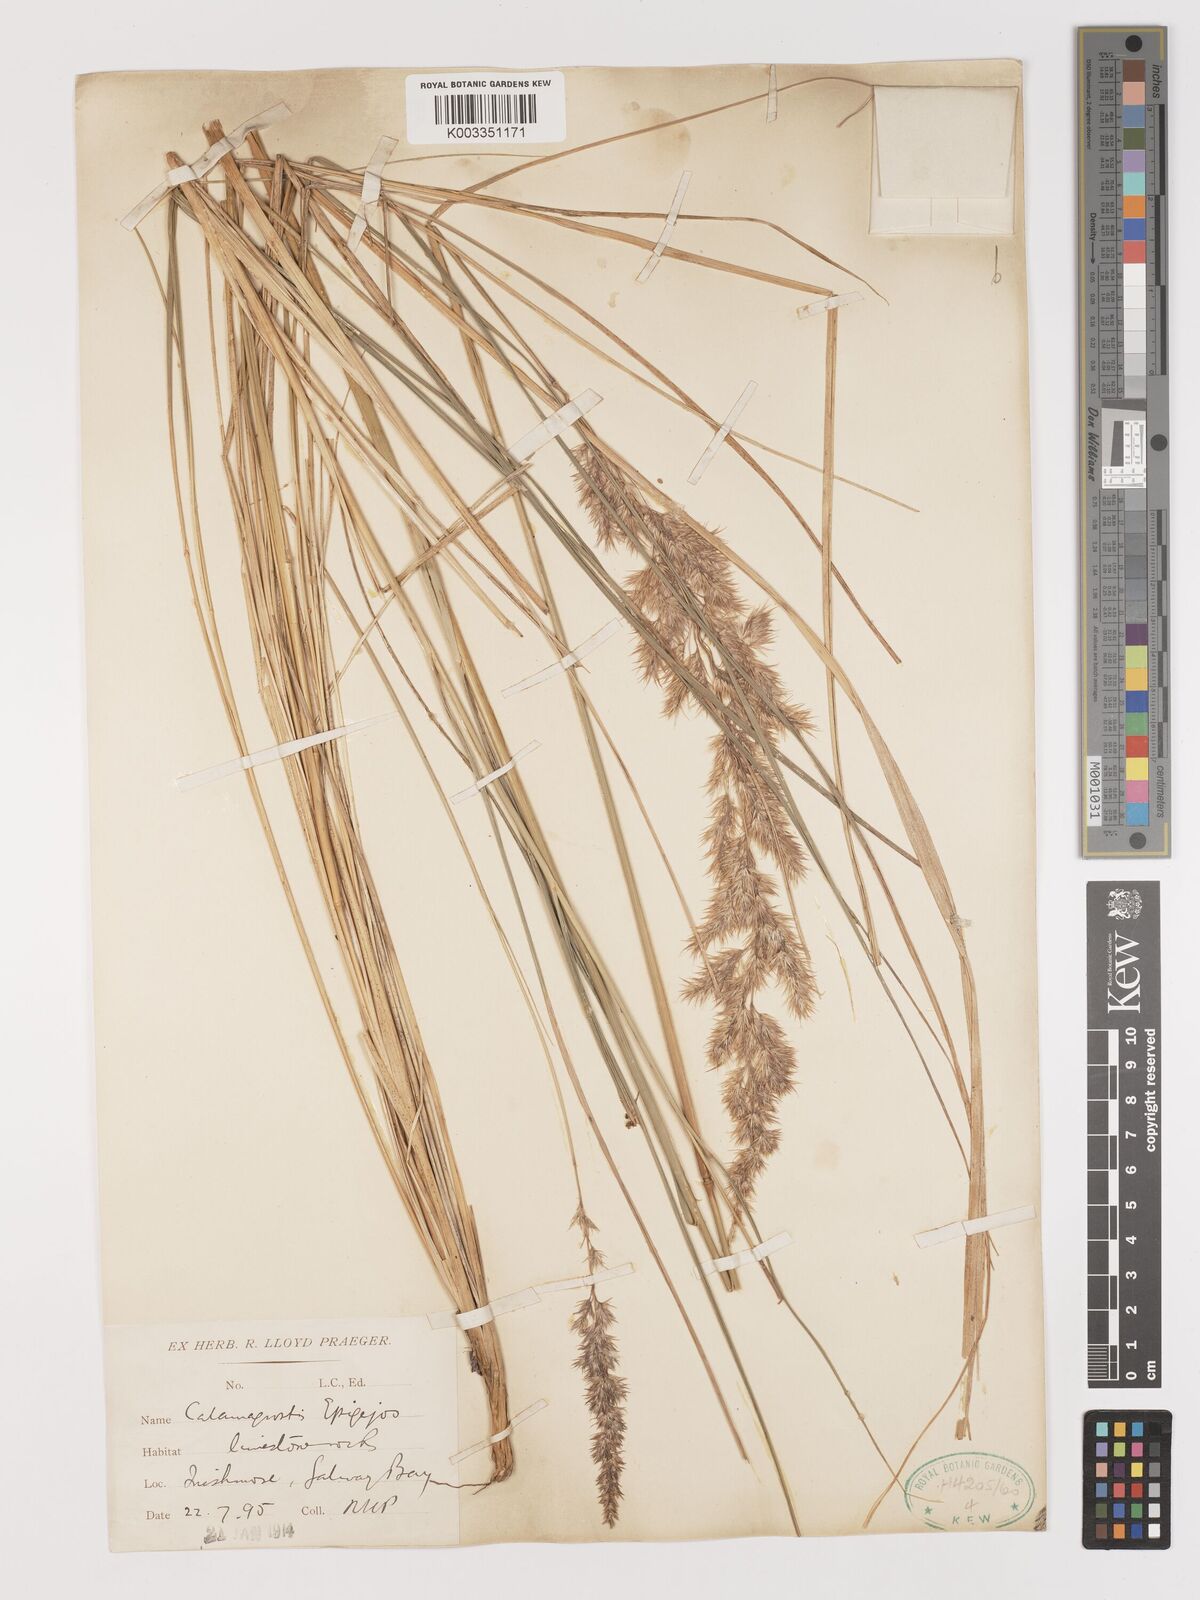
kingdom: Plantae
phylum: Tracheophyta
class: Liliopsida
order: Poales
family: Poaceae
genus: Calamagrostis
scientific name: Calamagrostis
